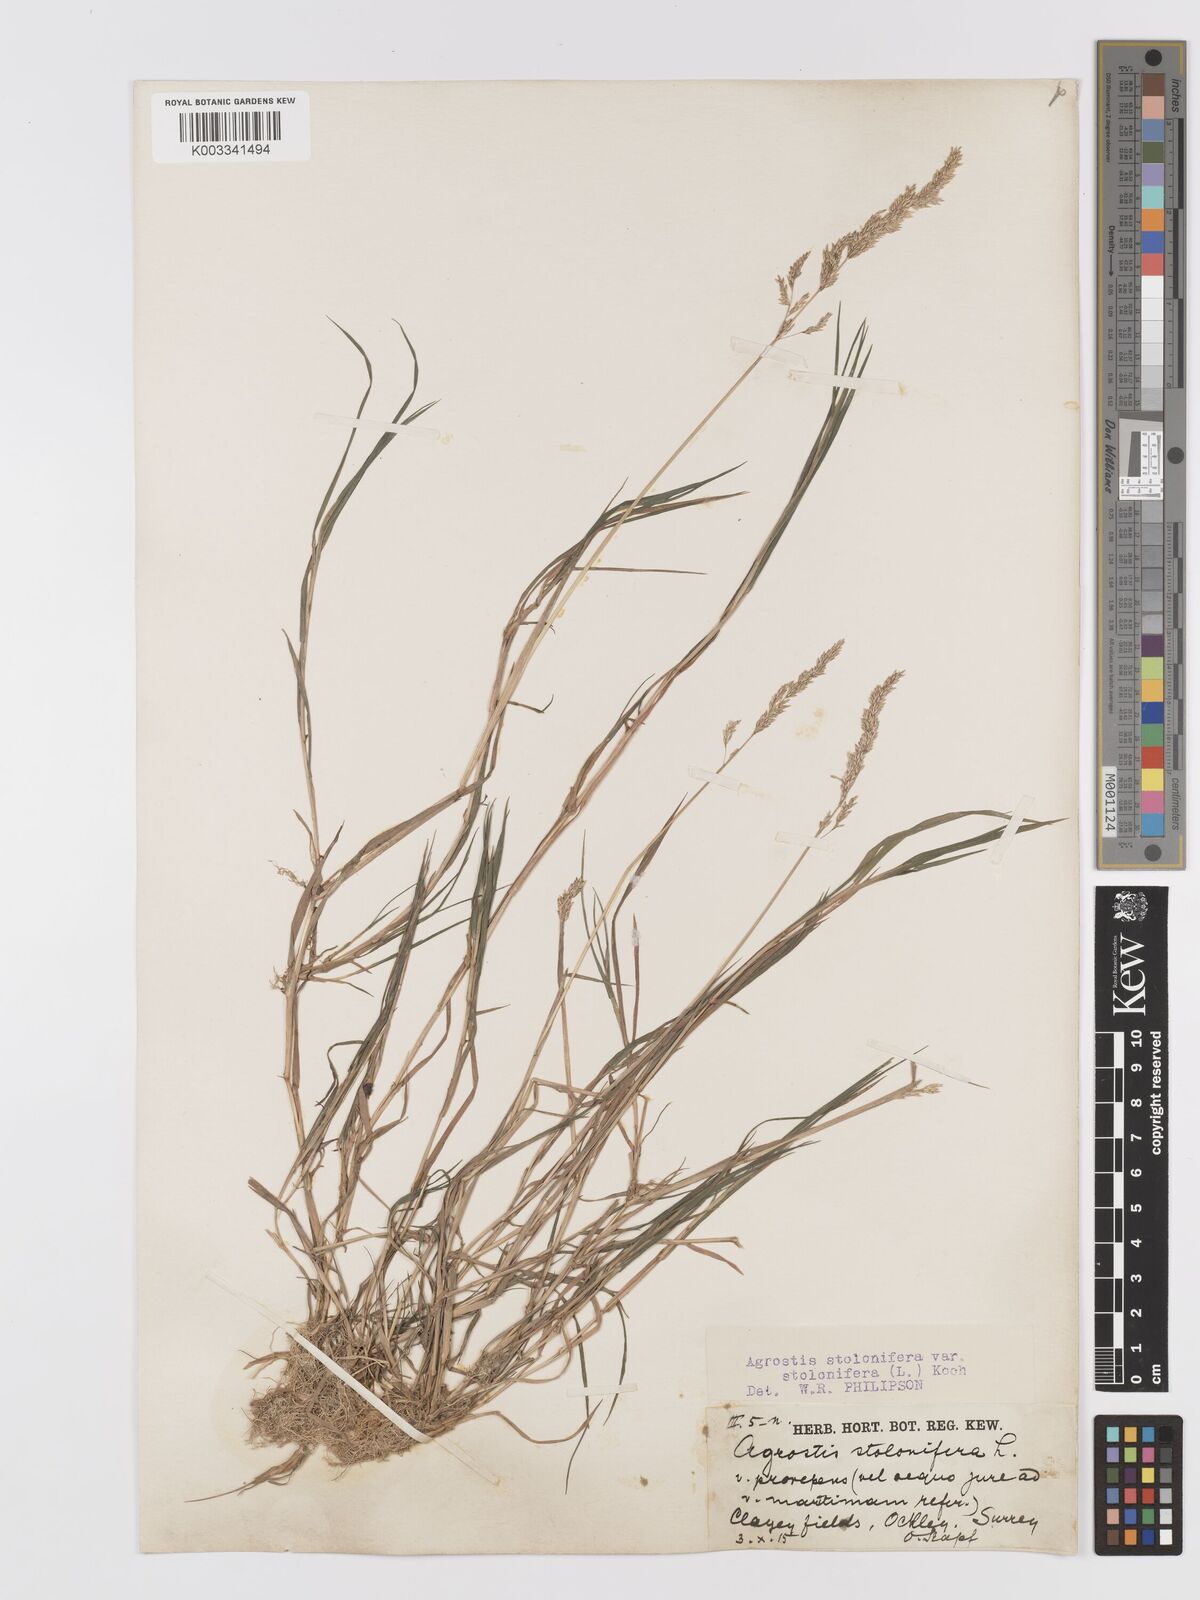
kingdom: Plantae
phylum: Tracheophyta
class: Liliopsida
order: Poales
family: Poaceae
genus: Agrostis
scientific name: Agrostis stolonifera
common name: Creeping bentgrass
